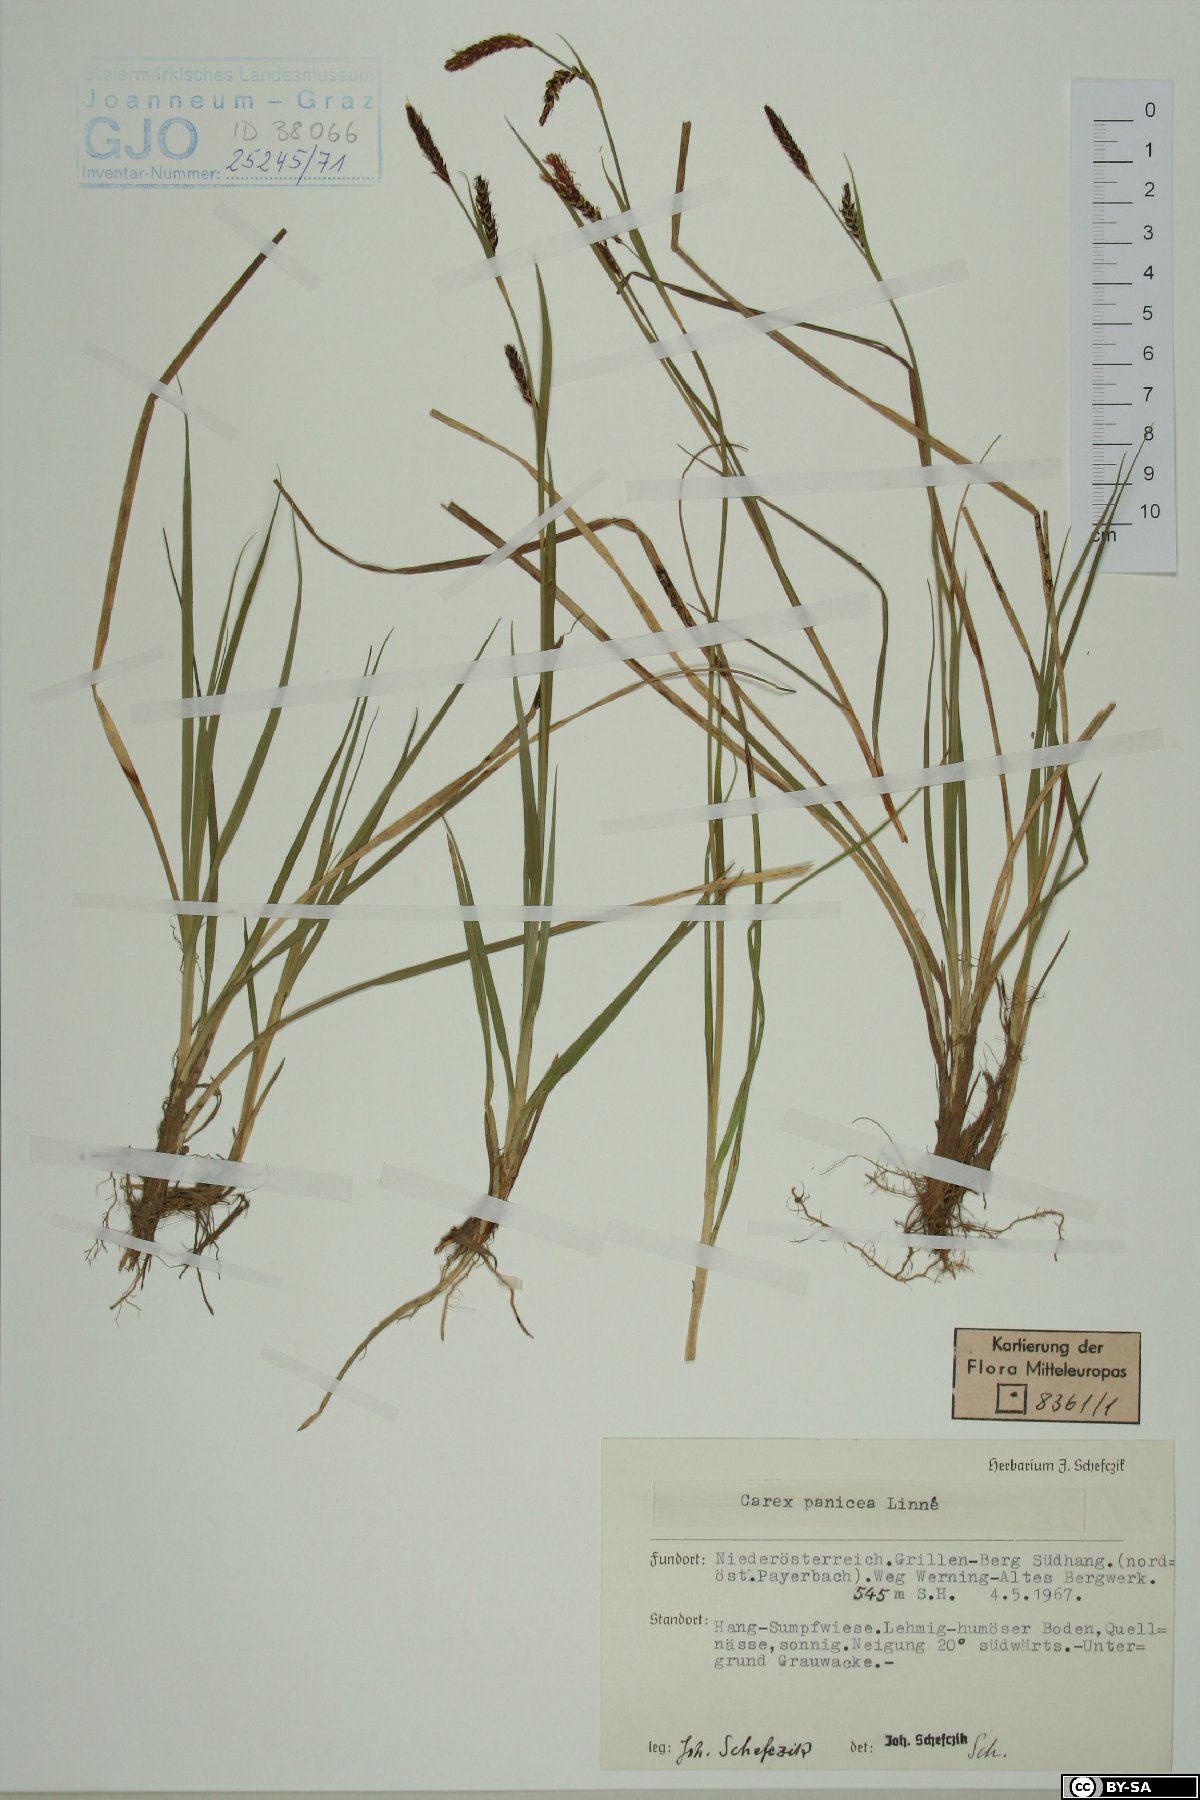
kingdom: Plantae
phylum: Tracheophyta
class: Liliopsida
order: Poales
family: Cyperaceae
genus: Carex
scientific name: Carex panicea
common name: Carnation sedge
